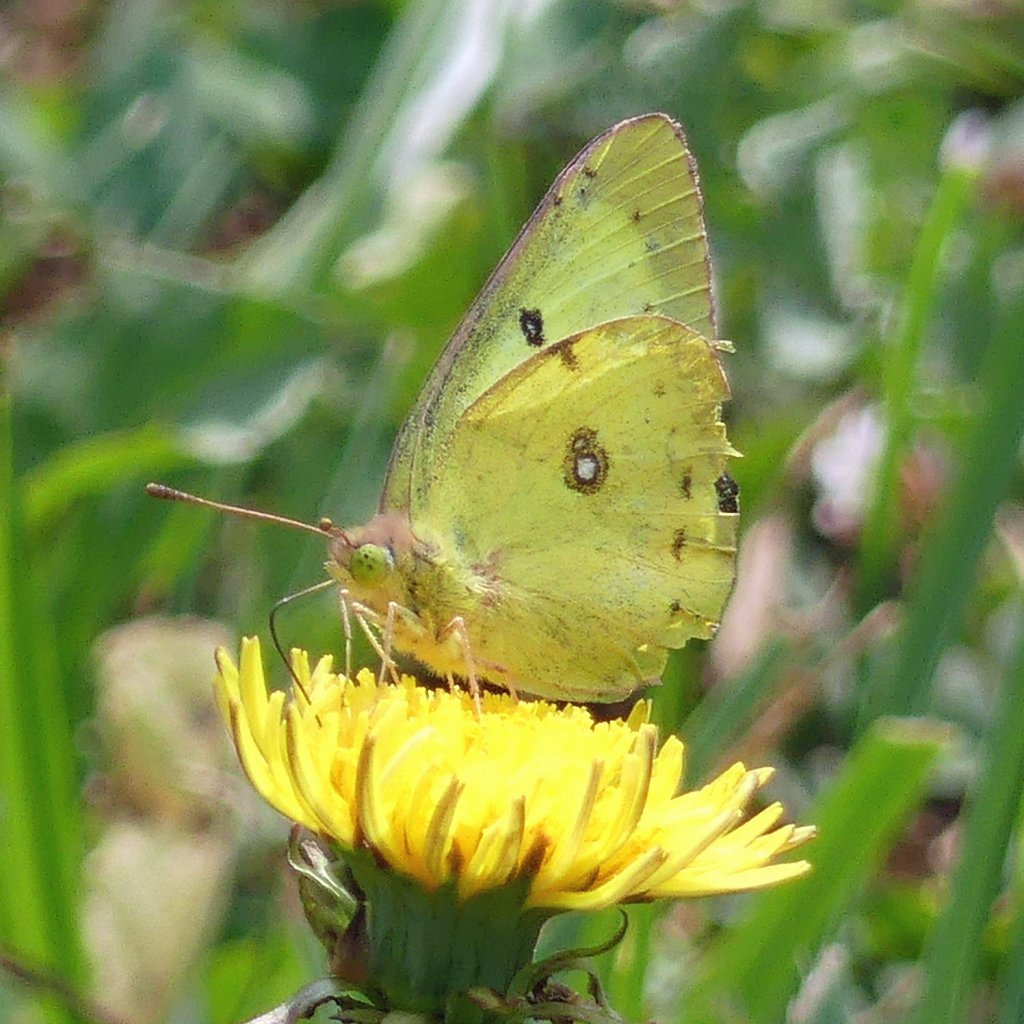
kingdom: Animalia
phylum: Arthropoda
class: Insecta
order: Lepidoptera
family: Pieridae
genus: Colias
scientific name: Colias philodice
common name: Clouded Sulphur
